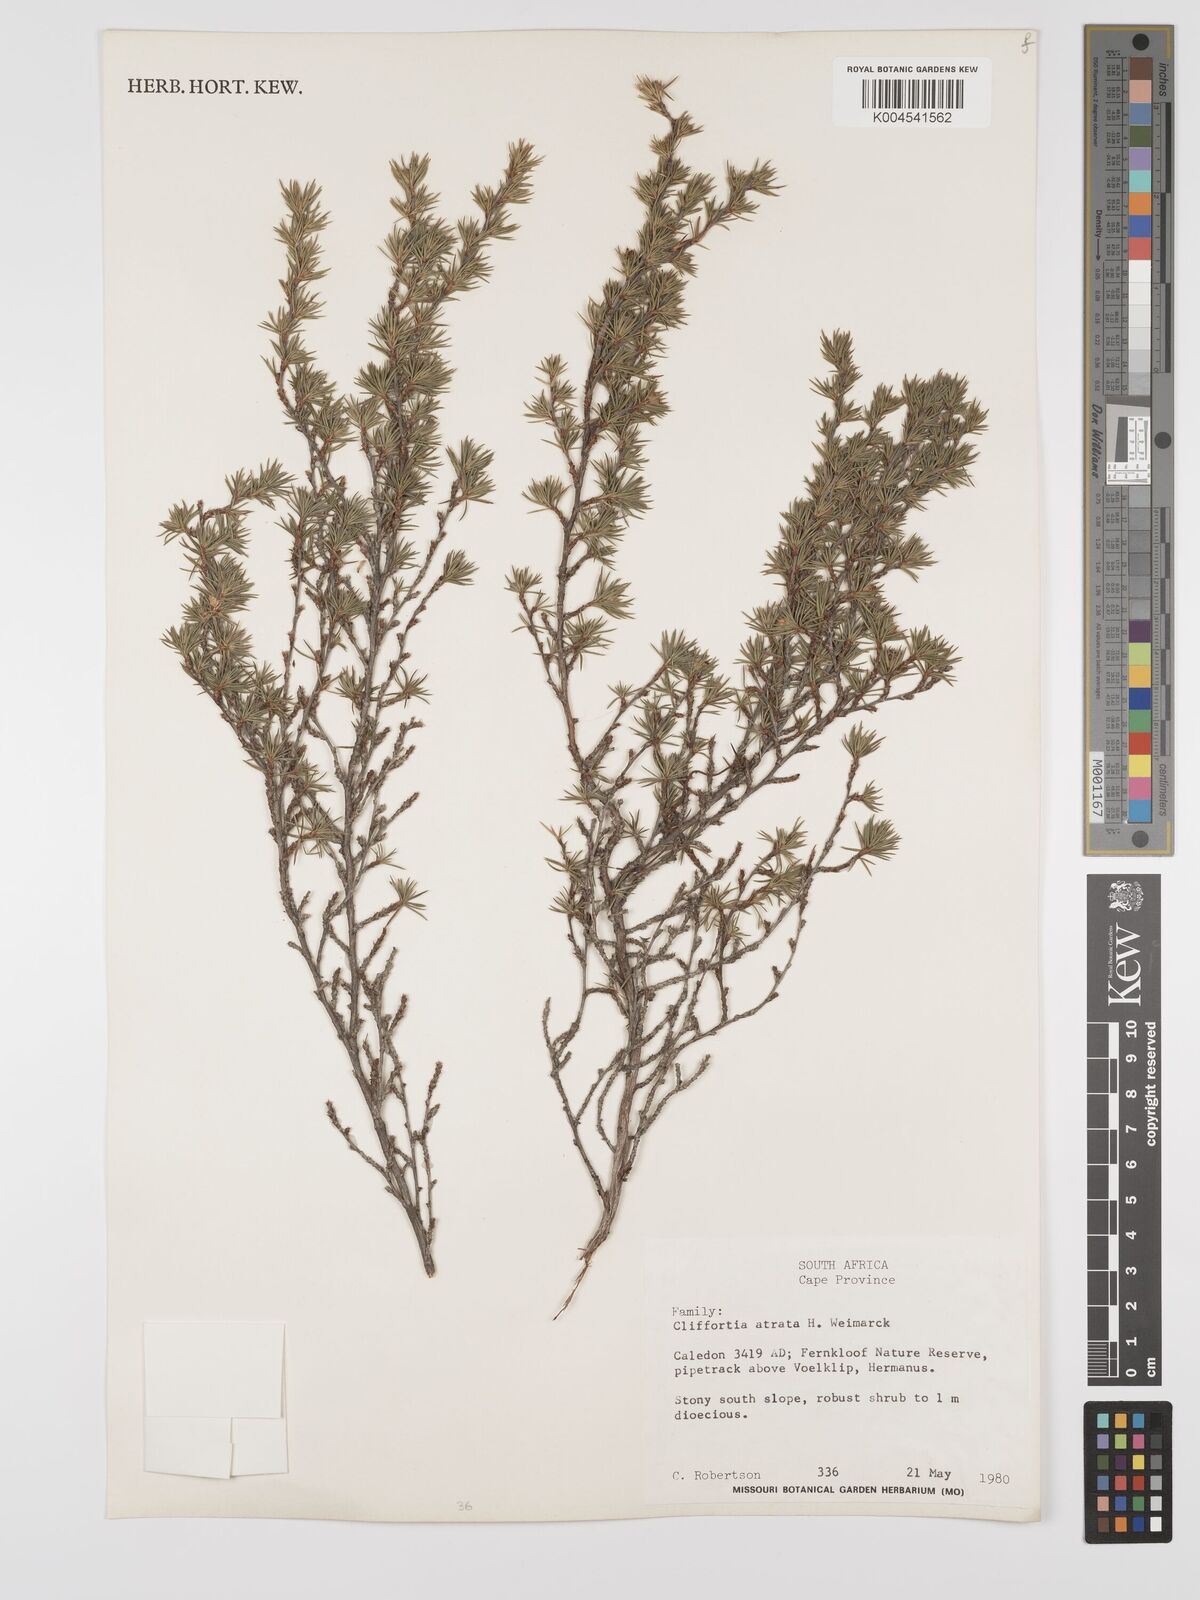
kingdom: Plantae
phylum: Tracheophyta
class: Magnoliopsida
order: Rosales
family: Rosaceae
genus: Cliffortia
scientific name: Cliffortia atrata
